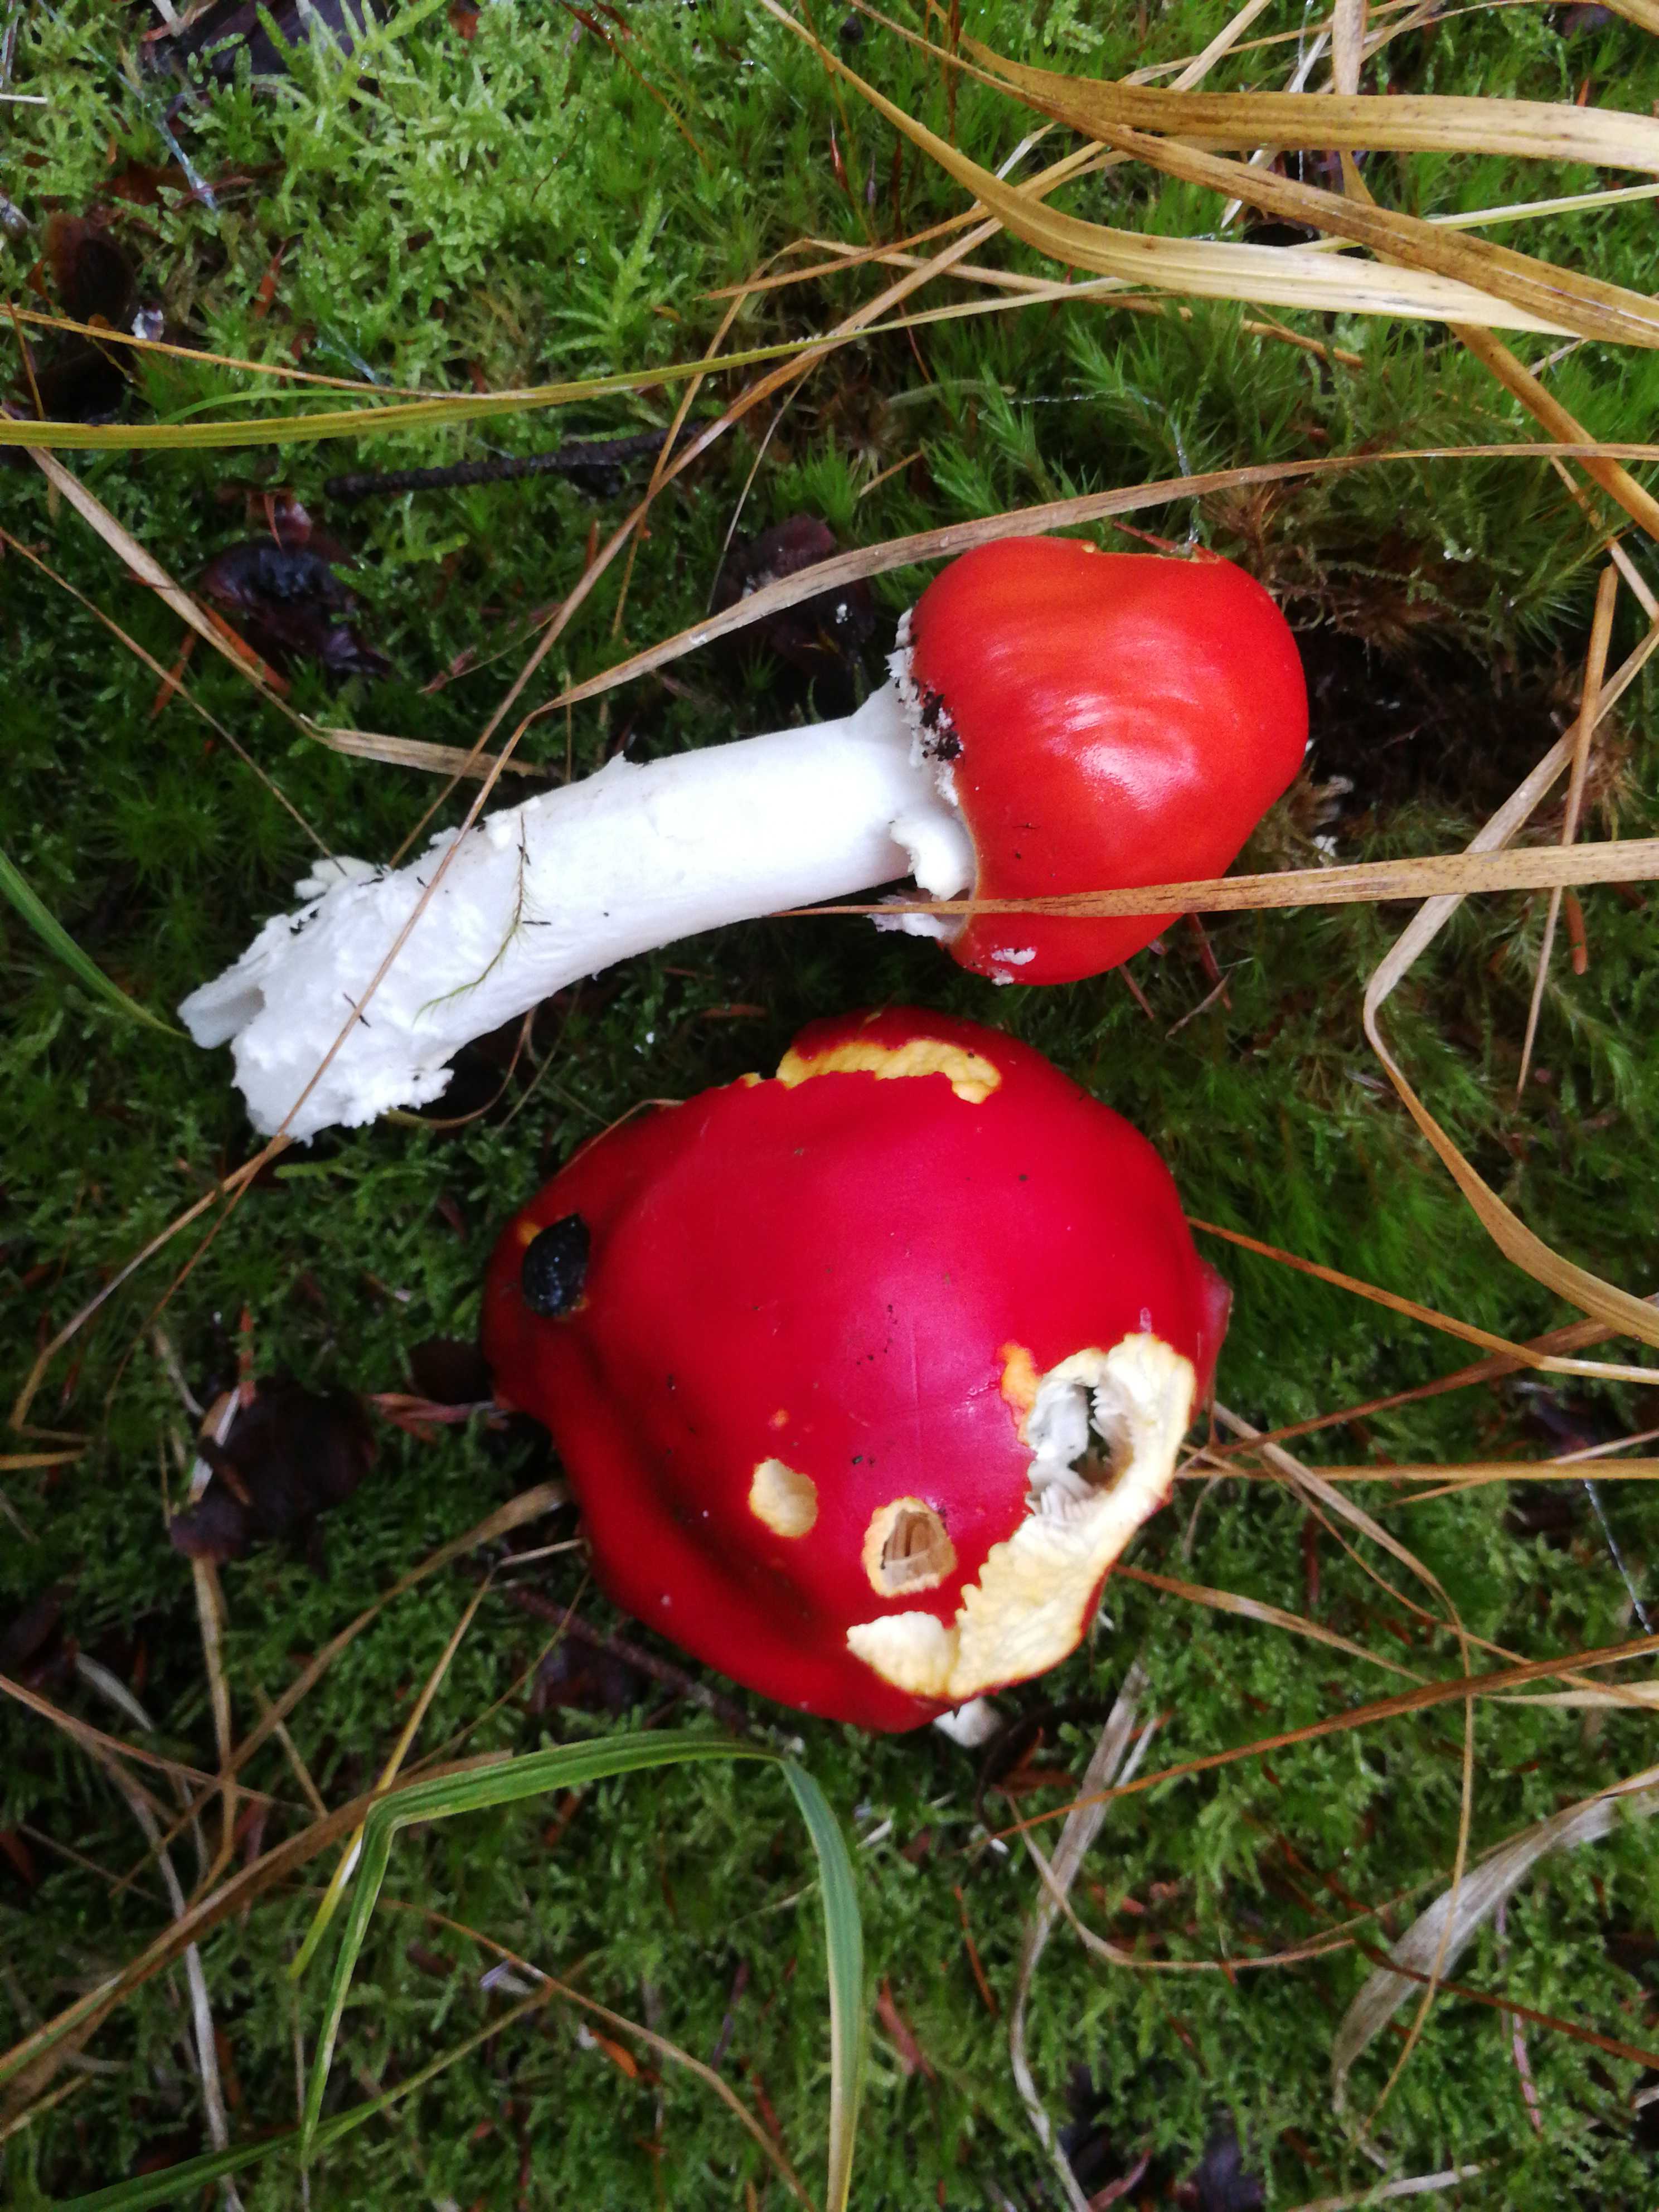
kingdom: Fungi
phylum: Basidiomycota
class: Agaricomycetes
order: Agaricales
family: Amanitaceae
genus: Amanita
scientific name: Amanita muscaria
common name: rød fluesvamp
